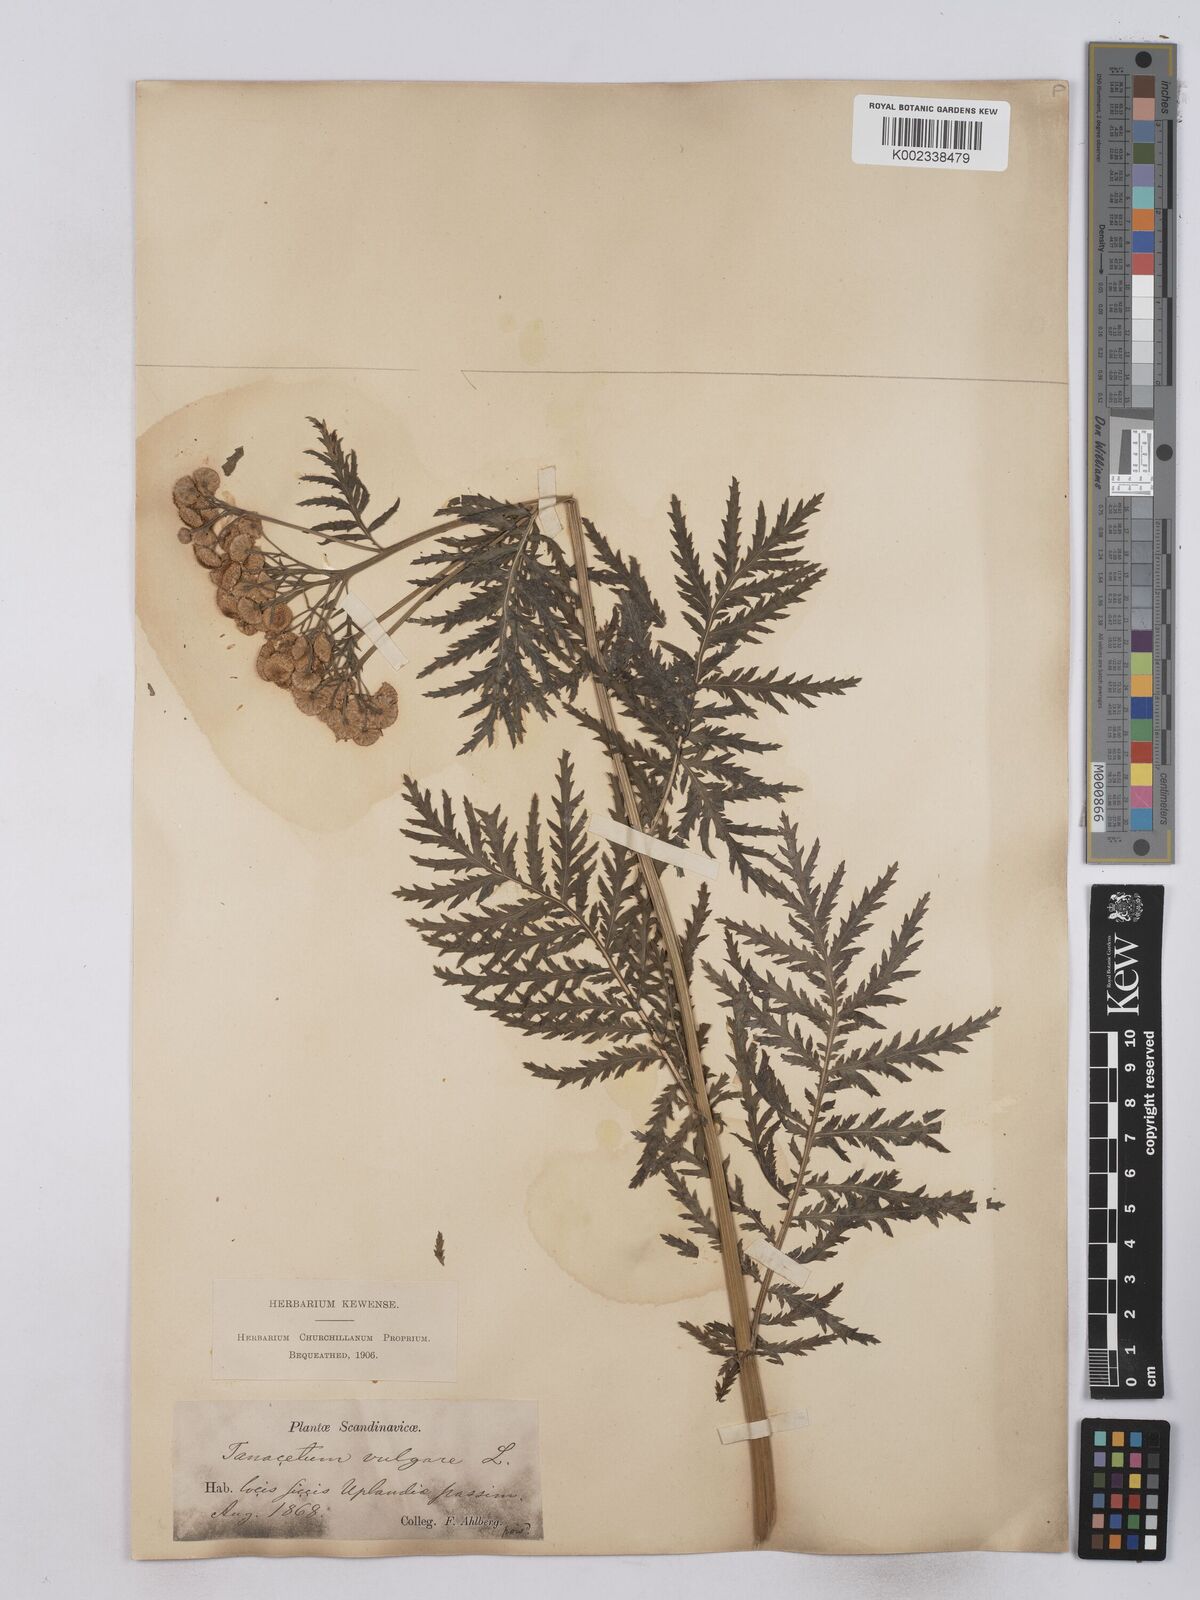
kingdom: Plantae
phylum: Tracheophyta
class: Magnoliopsida
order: Asterales
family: Asteraceae
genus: Tanacetum
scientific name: Tanacetum vulgare
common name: Common tansy
